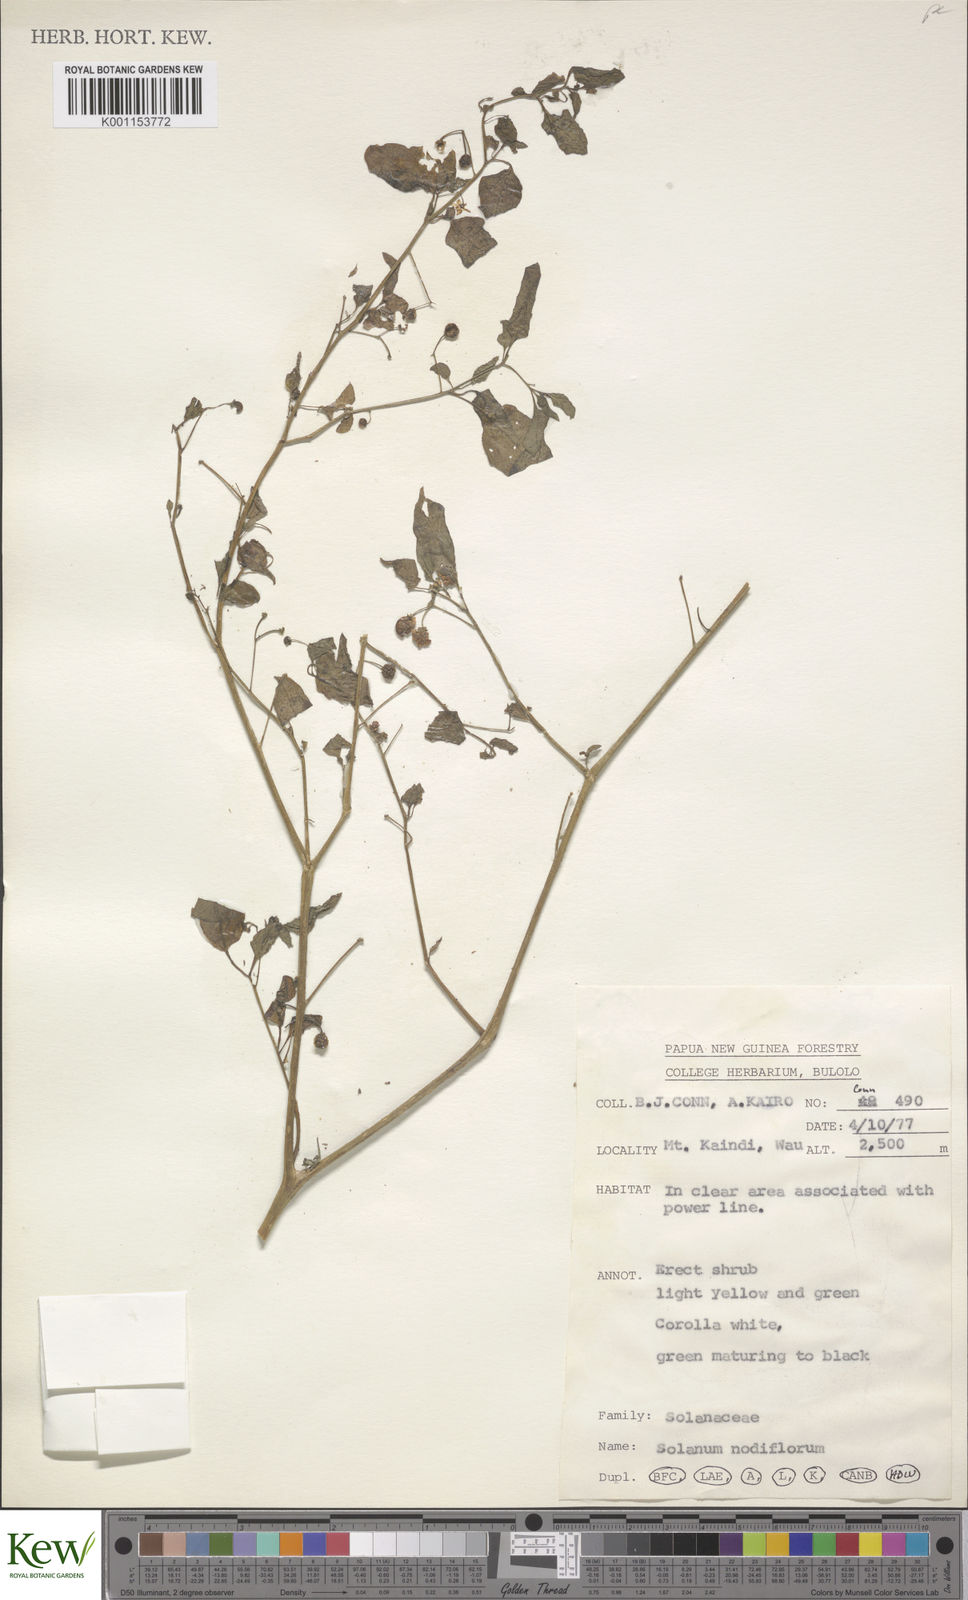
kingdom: Plantae
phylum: Tracheophyta
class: Magnoliopsida
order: Solanales
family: Solanaceae
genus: Solanum
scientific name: Solanum americanum
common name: American black nightshade
